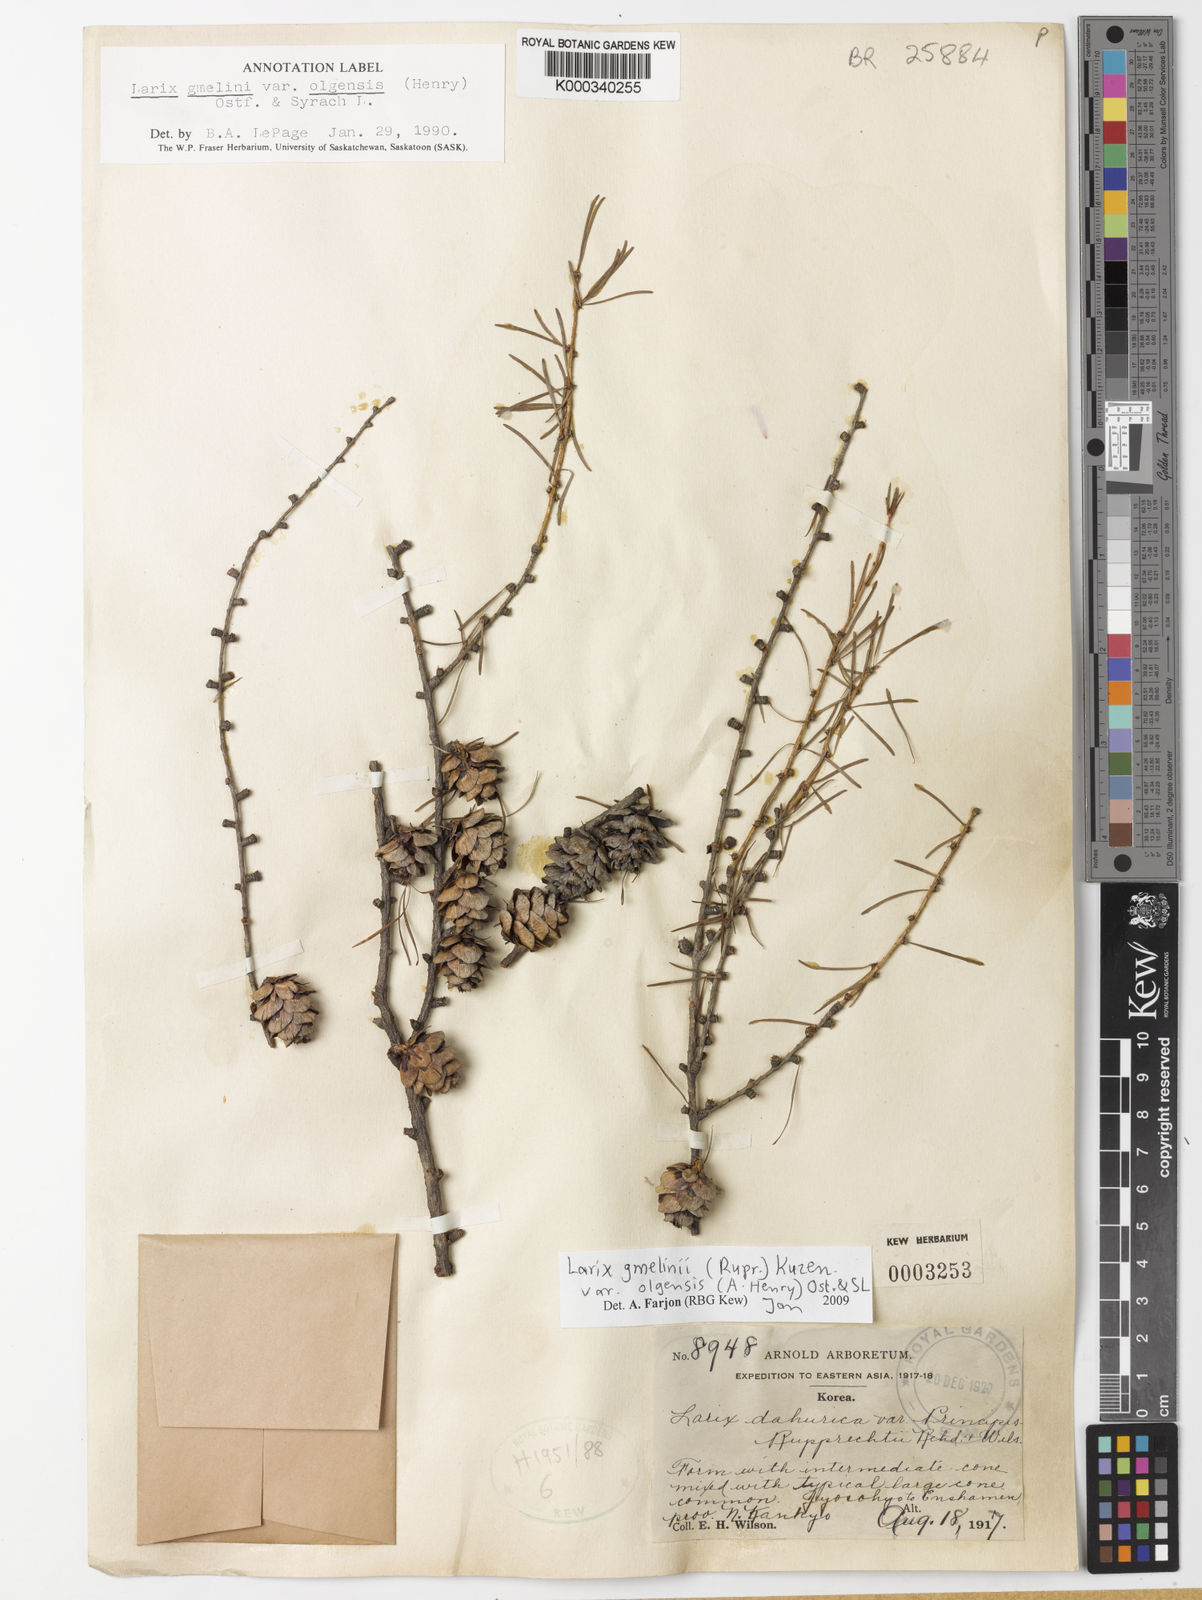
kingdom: Plantae
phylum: Tracheophyta
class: Pinopsida
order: Pinales
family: Pinaceae
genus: Larix
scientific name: Larix gmelinii
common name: Dahurian larch
